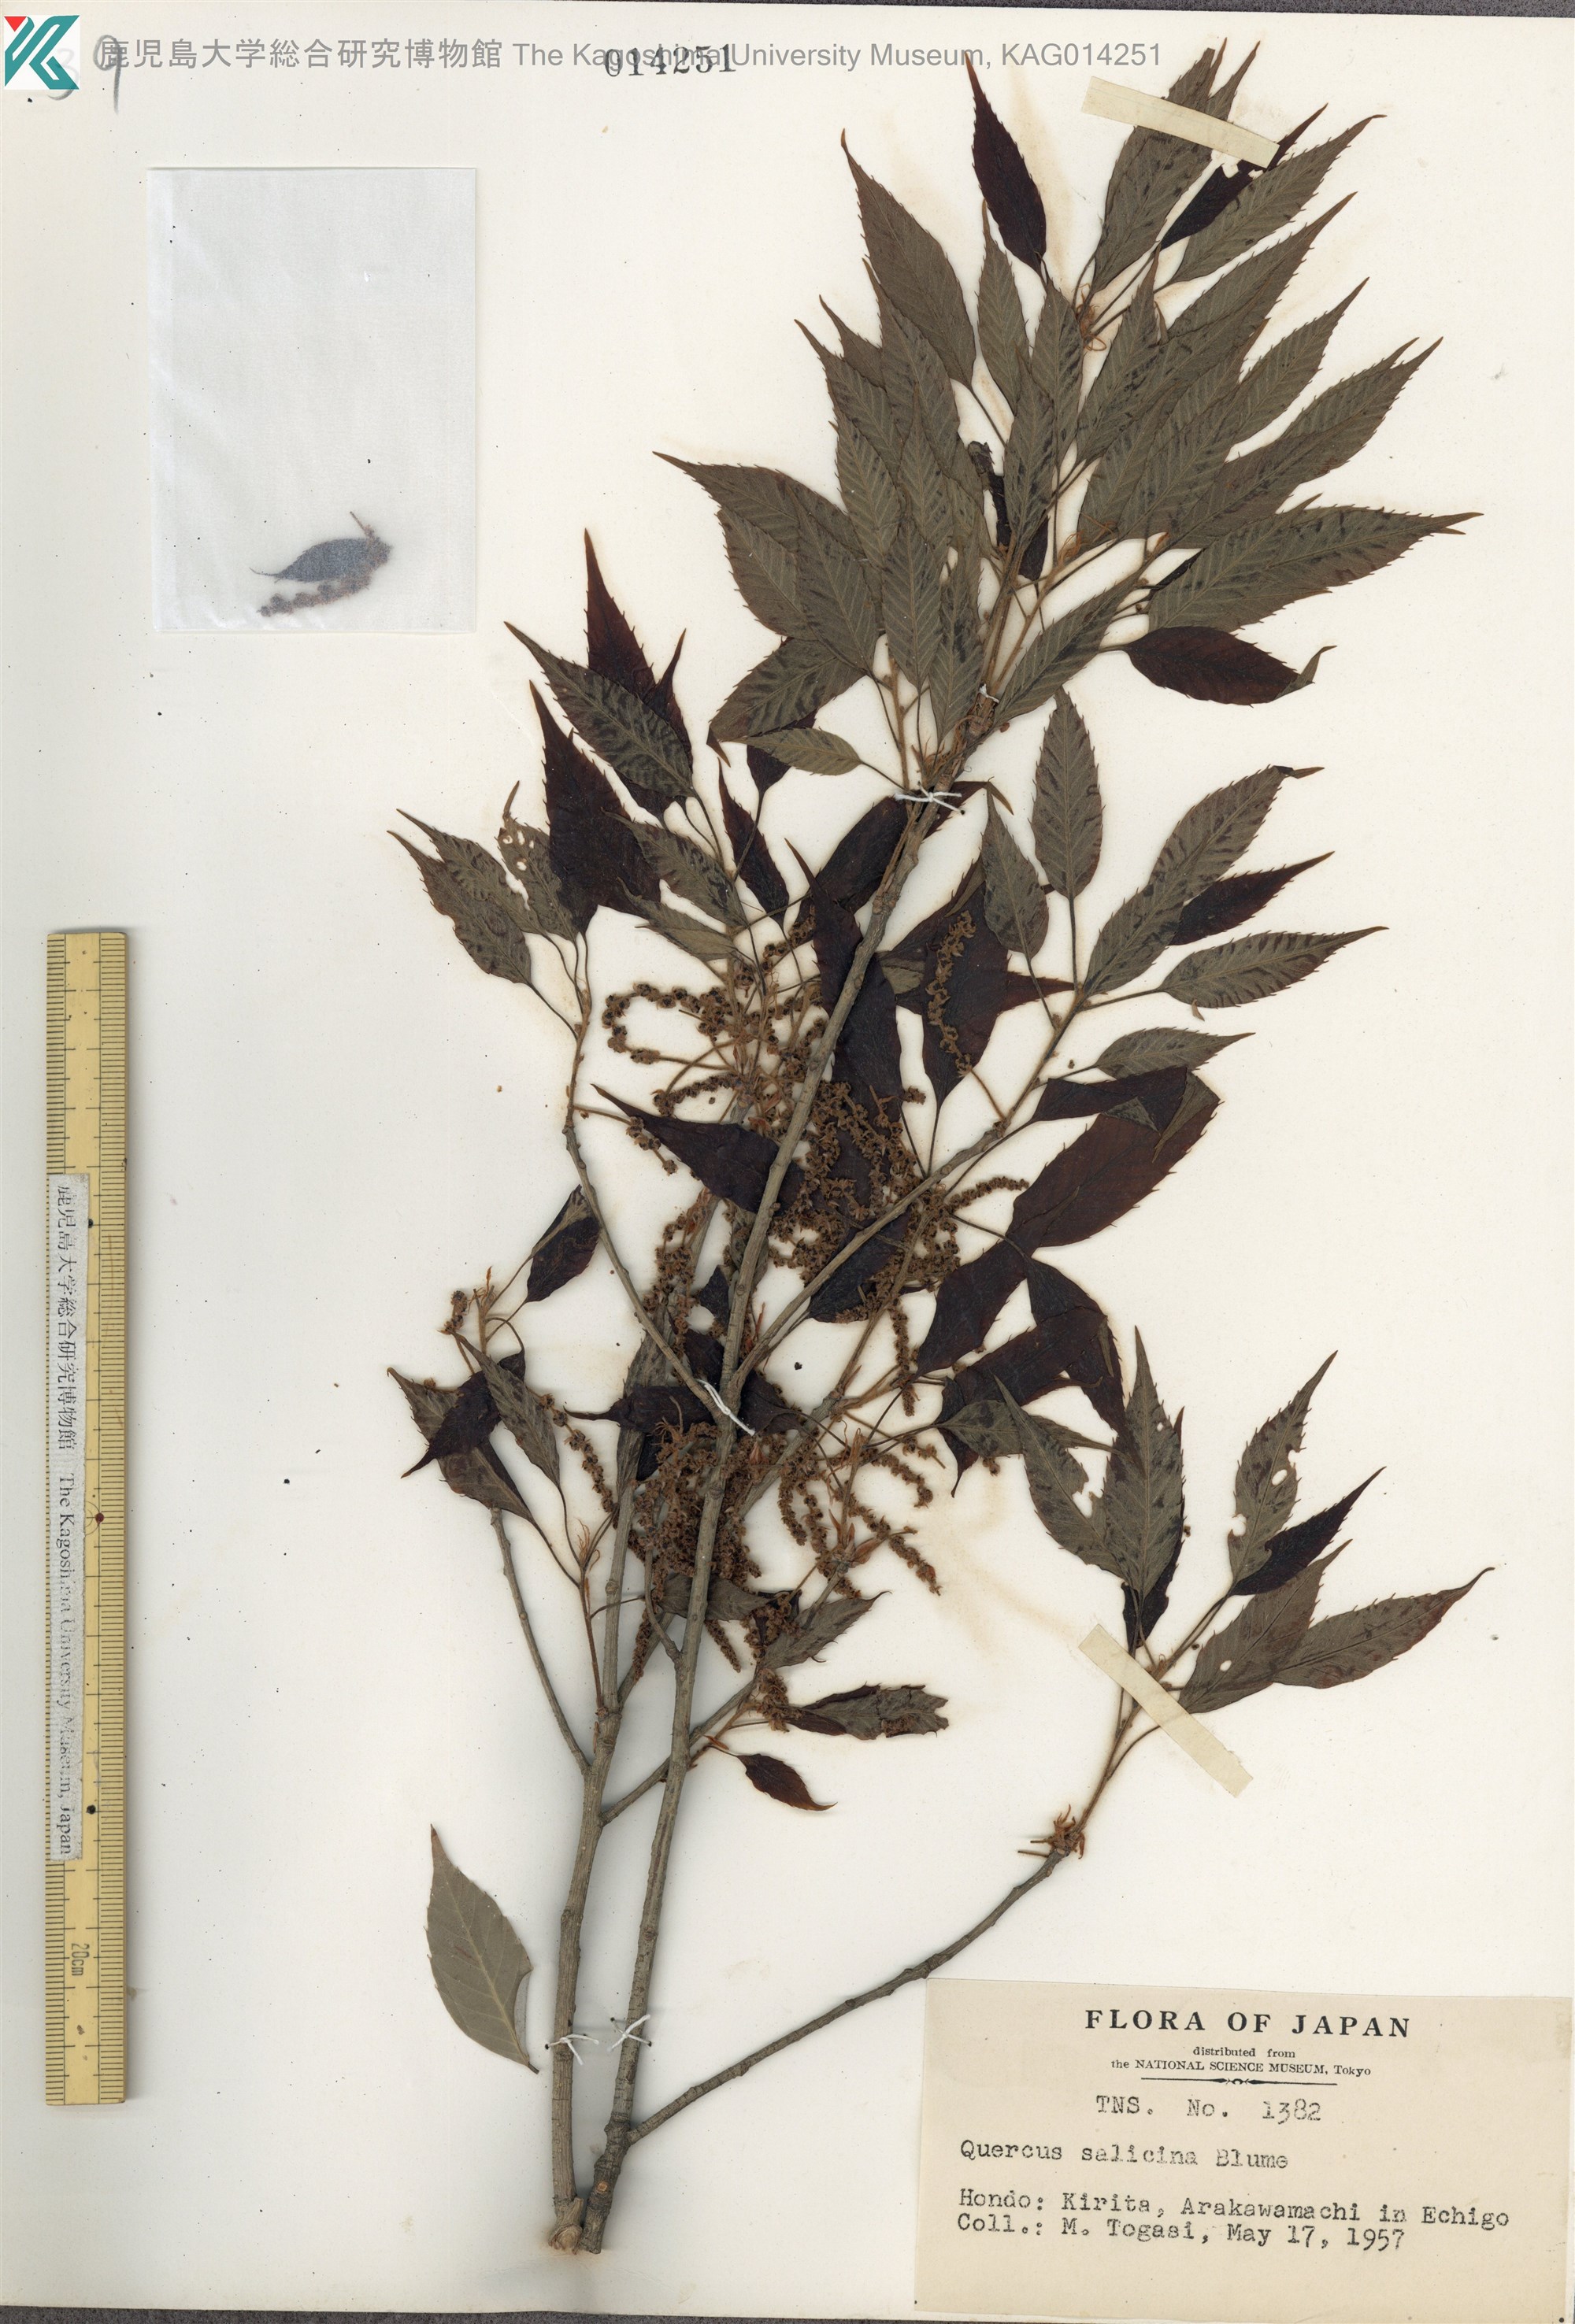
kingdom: Plantae
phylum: Tracheophyta
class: Magnoliopsida
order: Fagales
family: Fagaceae
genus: Quercus
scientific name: Quercus salicina
